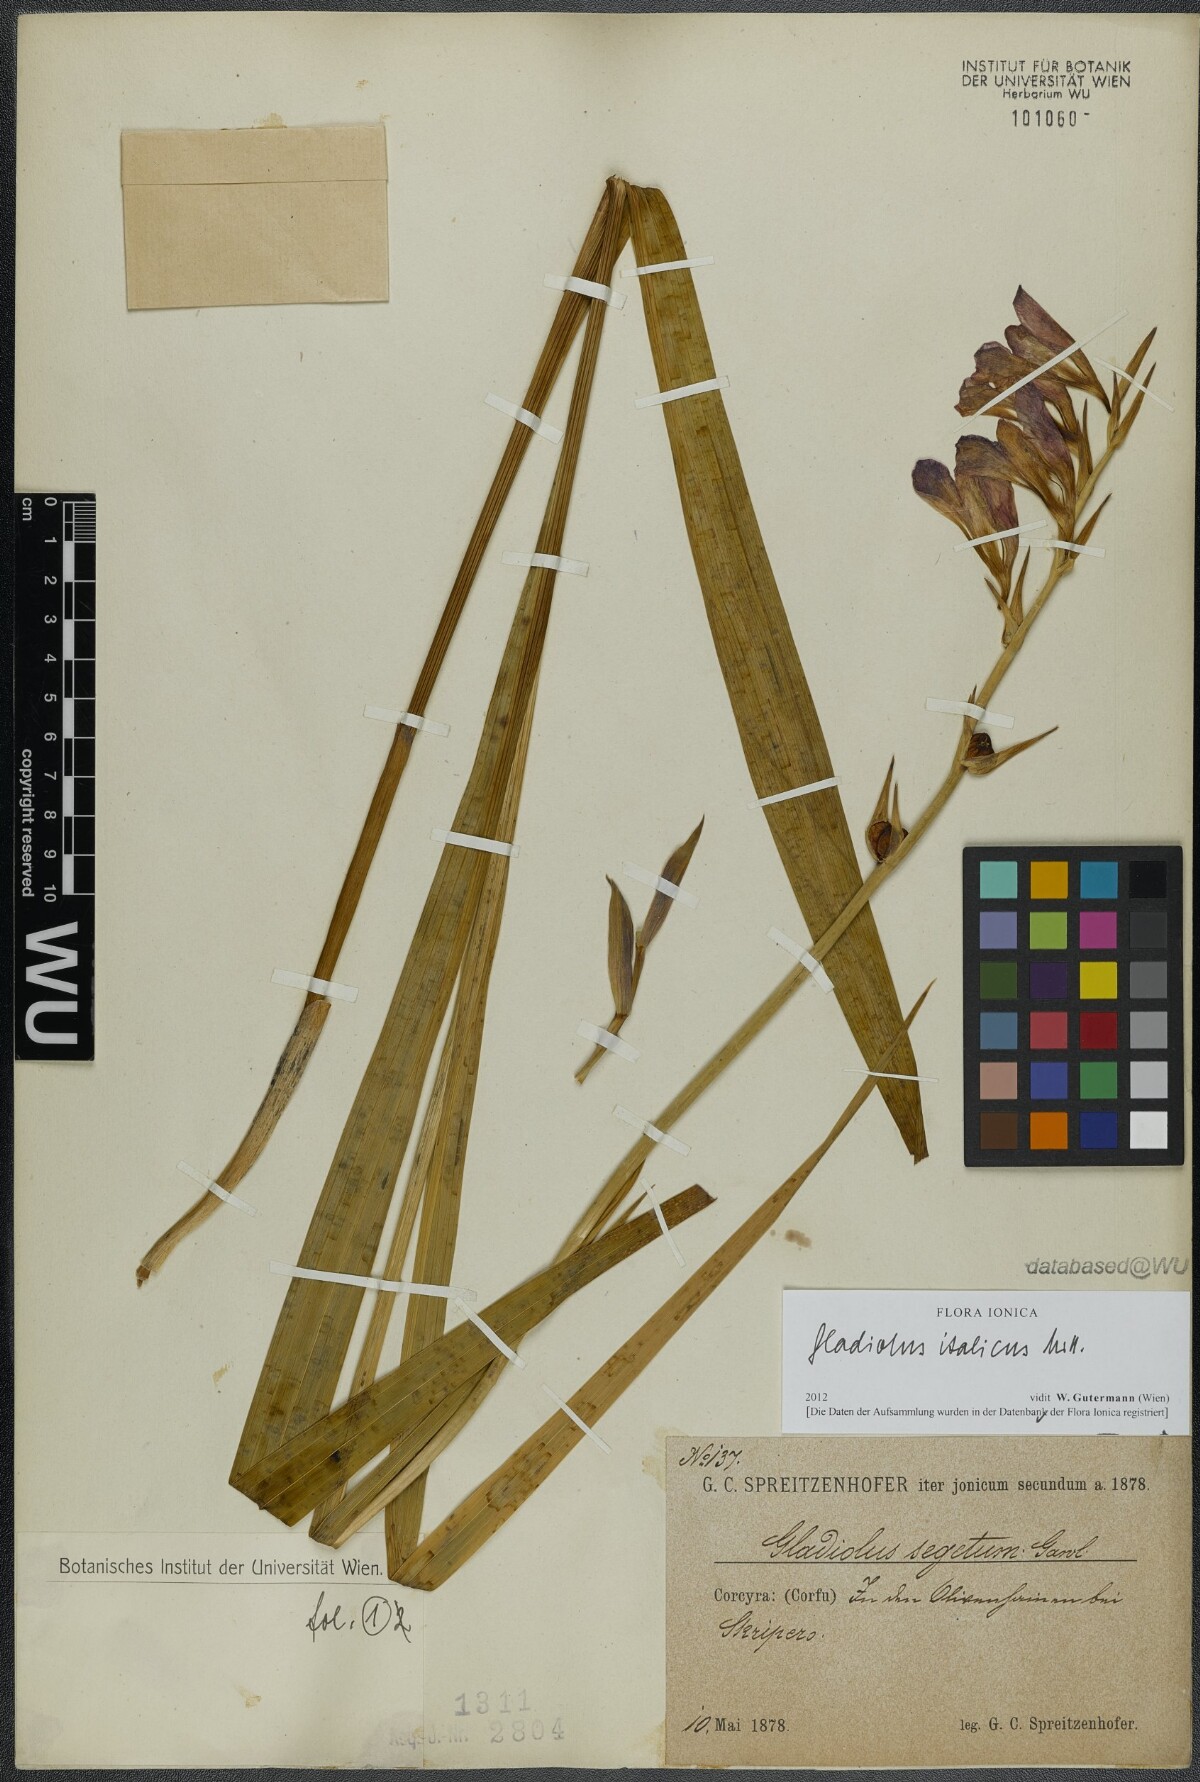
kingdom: Plantae
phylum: Tracheophyta
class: Liliopsida
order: Asparagales
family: Iridaceae
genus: Gladiolus
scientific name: Gladiolus italicus
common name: Field gladiolus
